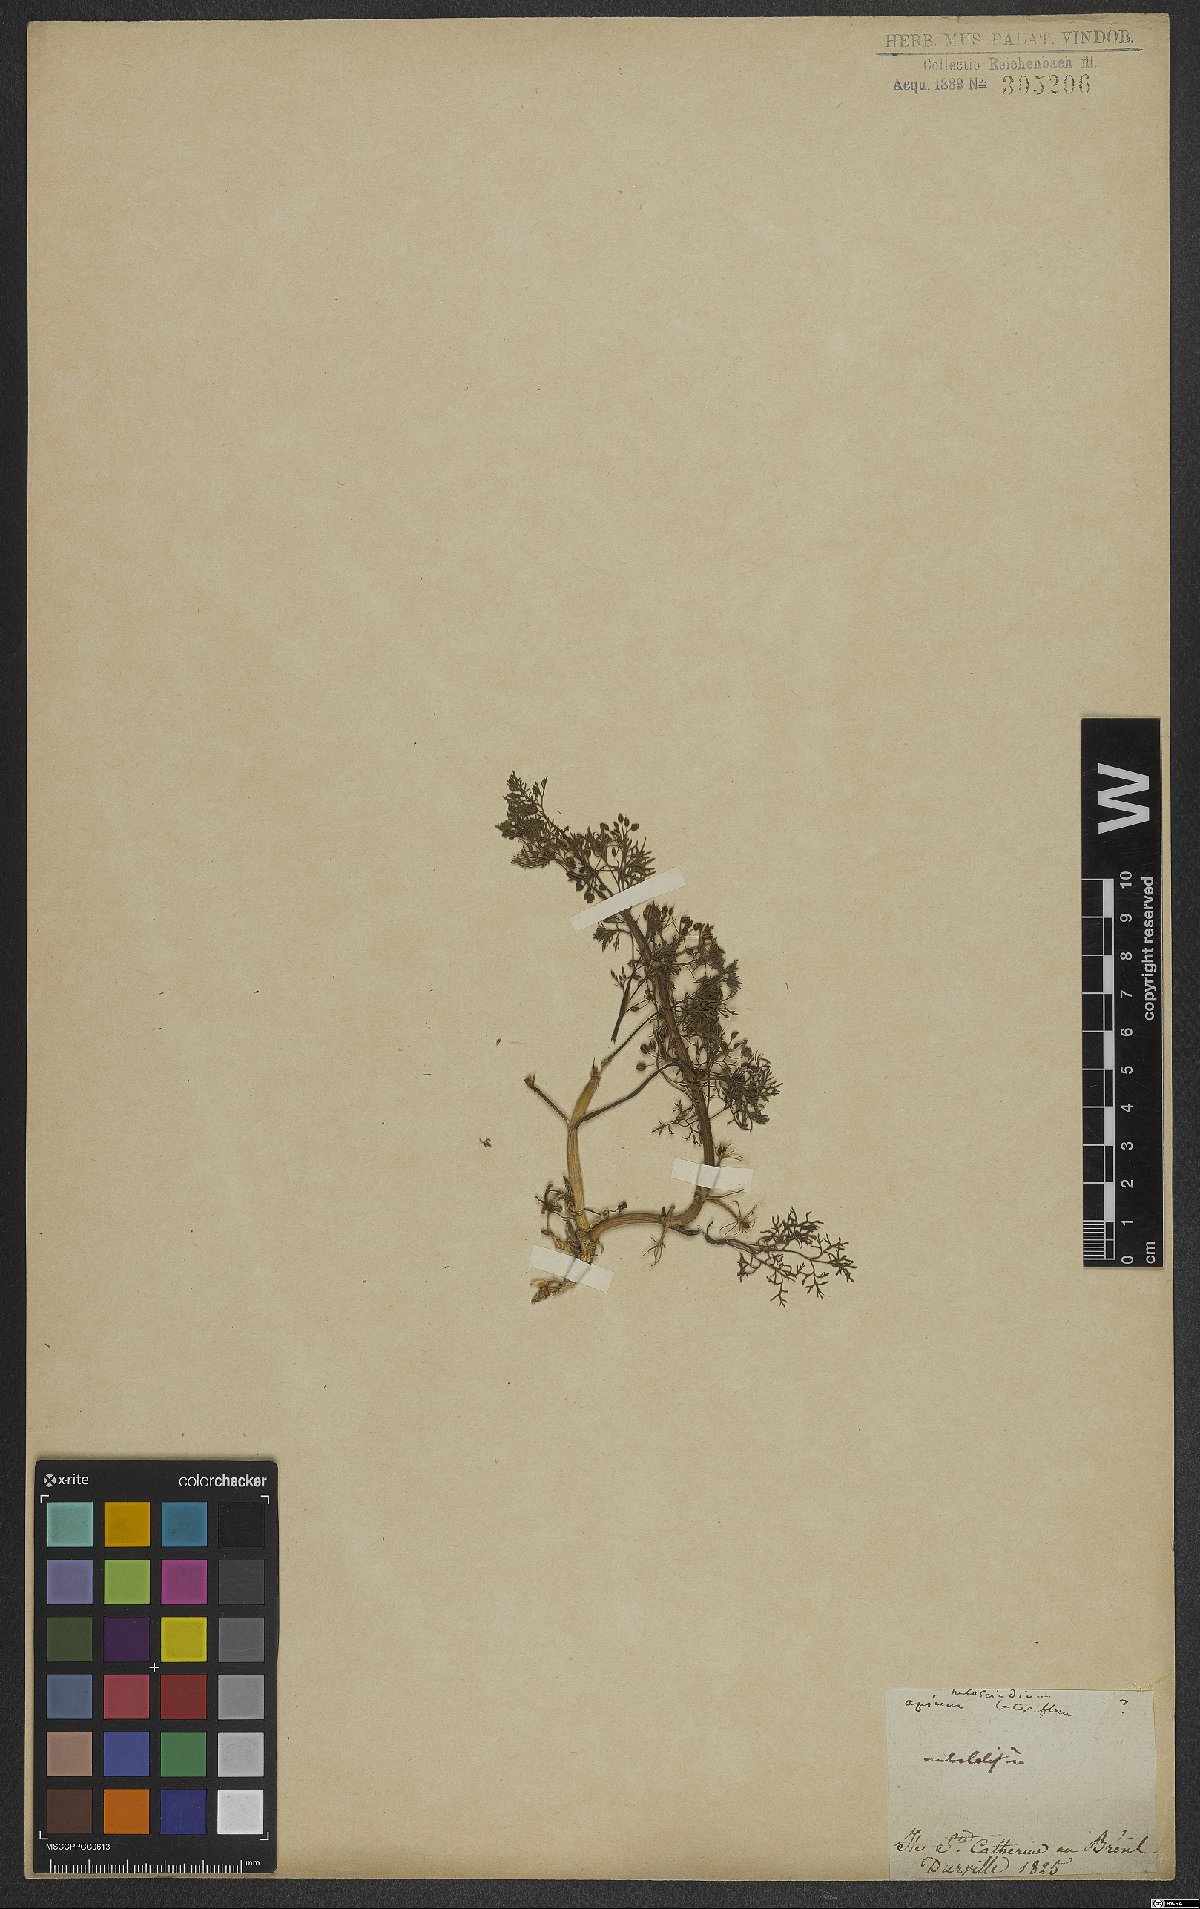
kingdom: Plantae
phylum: Tracheophyta
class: Magnoliopsida
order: Apiales
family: Apiaceae
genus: Cyclospermum
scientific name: Cyclospermum leptophyllum
